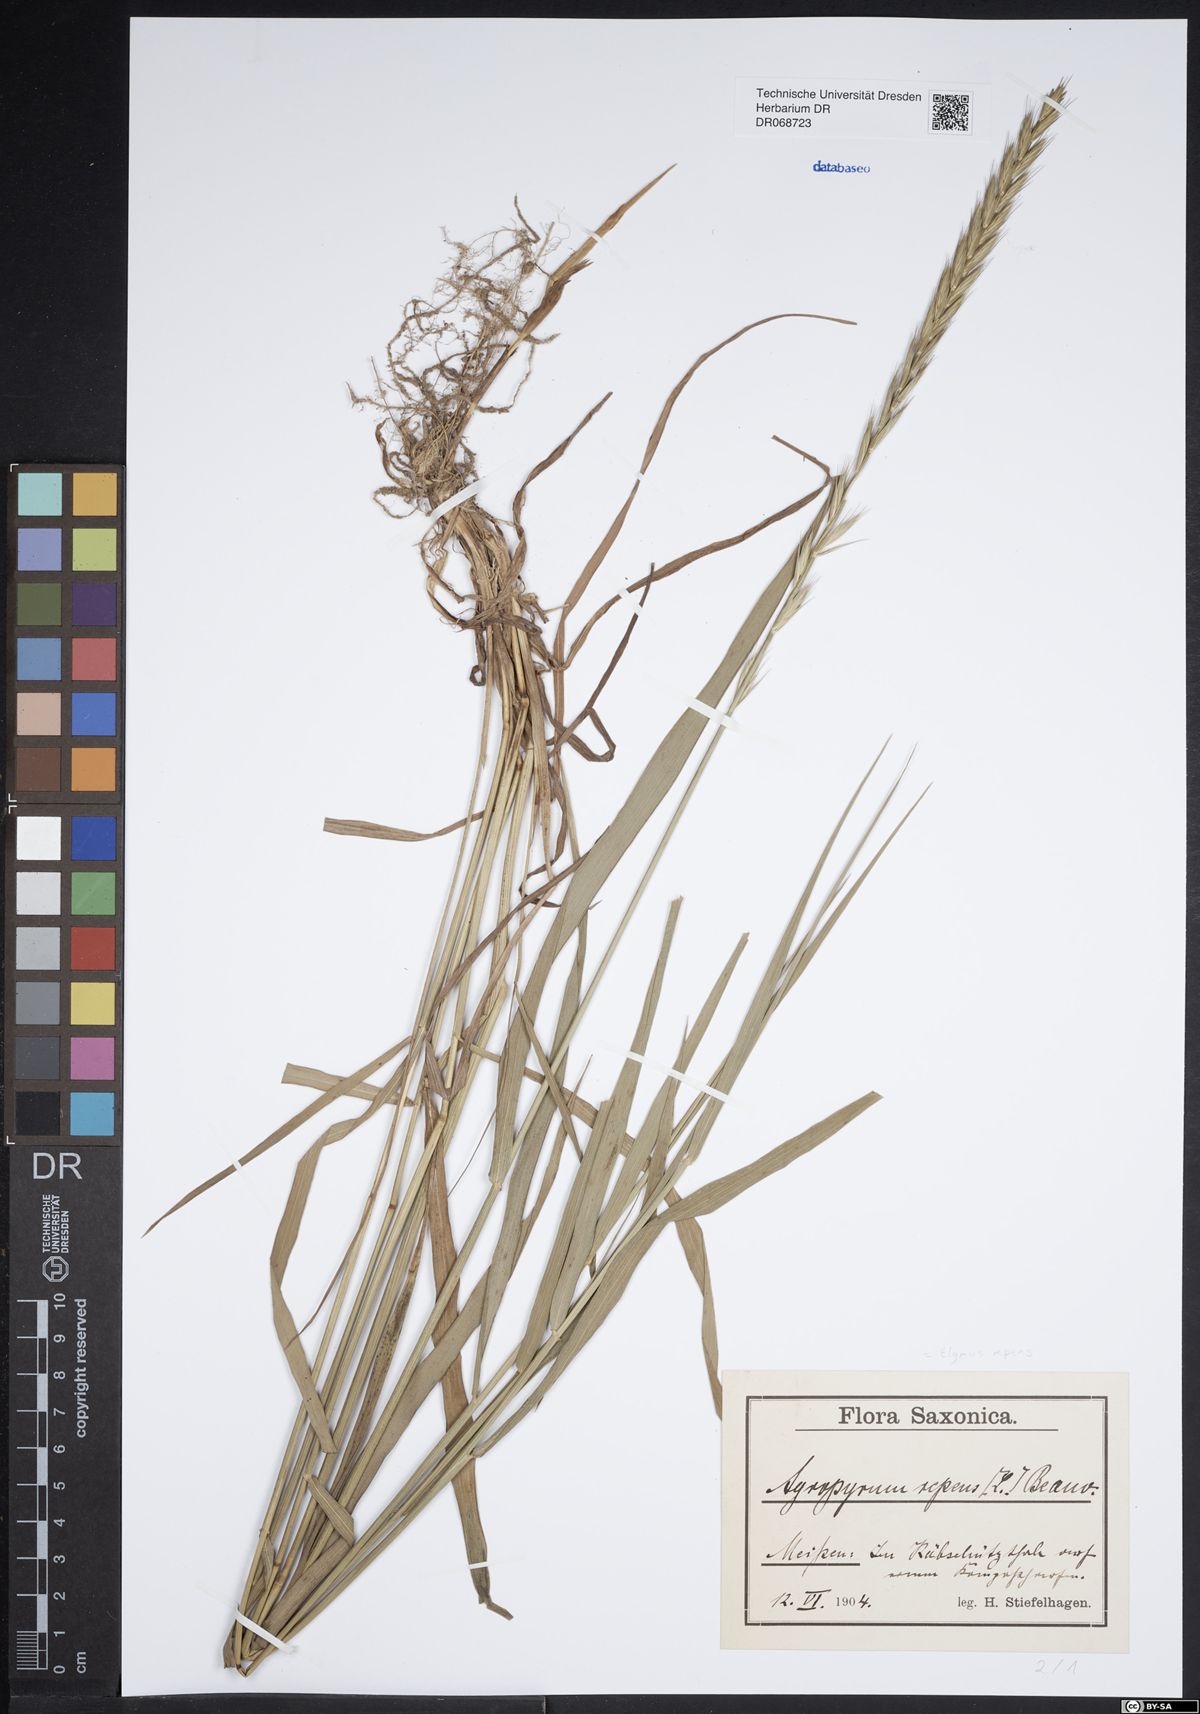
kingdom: Plantae
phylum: Tracheophyta
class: Liliopsida
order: Poales
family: Poaceae
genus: Elymus
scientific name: Elymus repens
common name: Quackgrass
